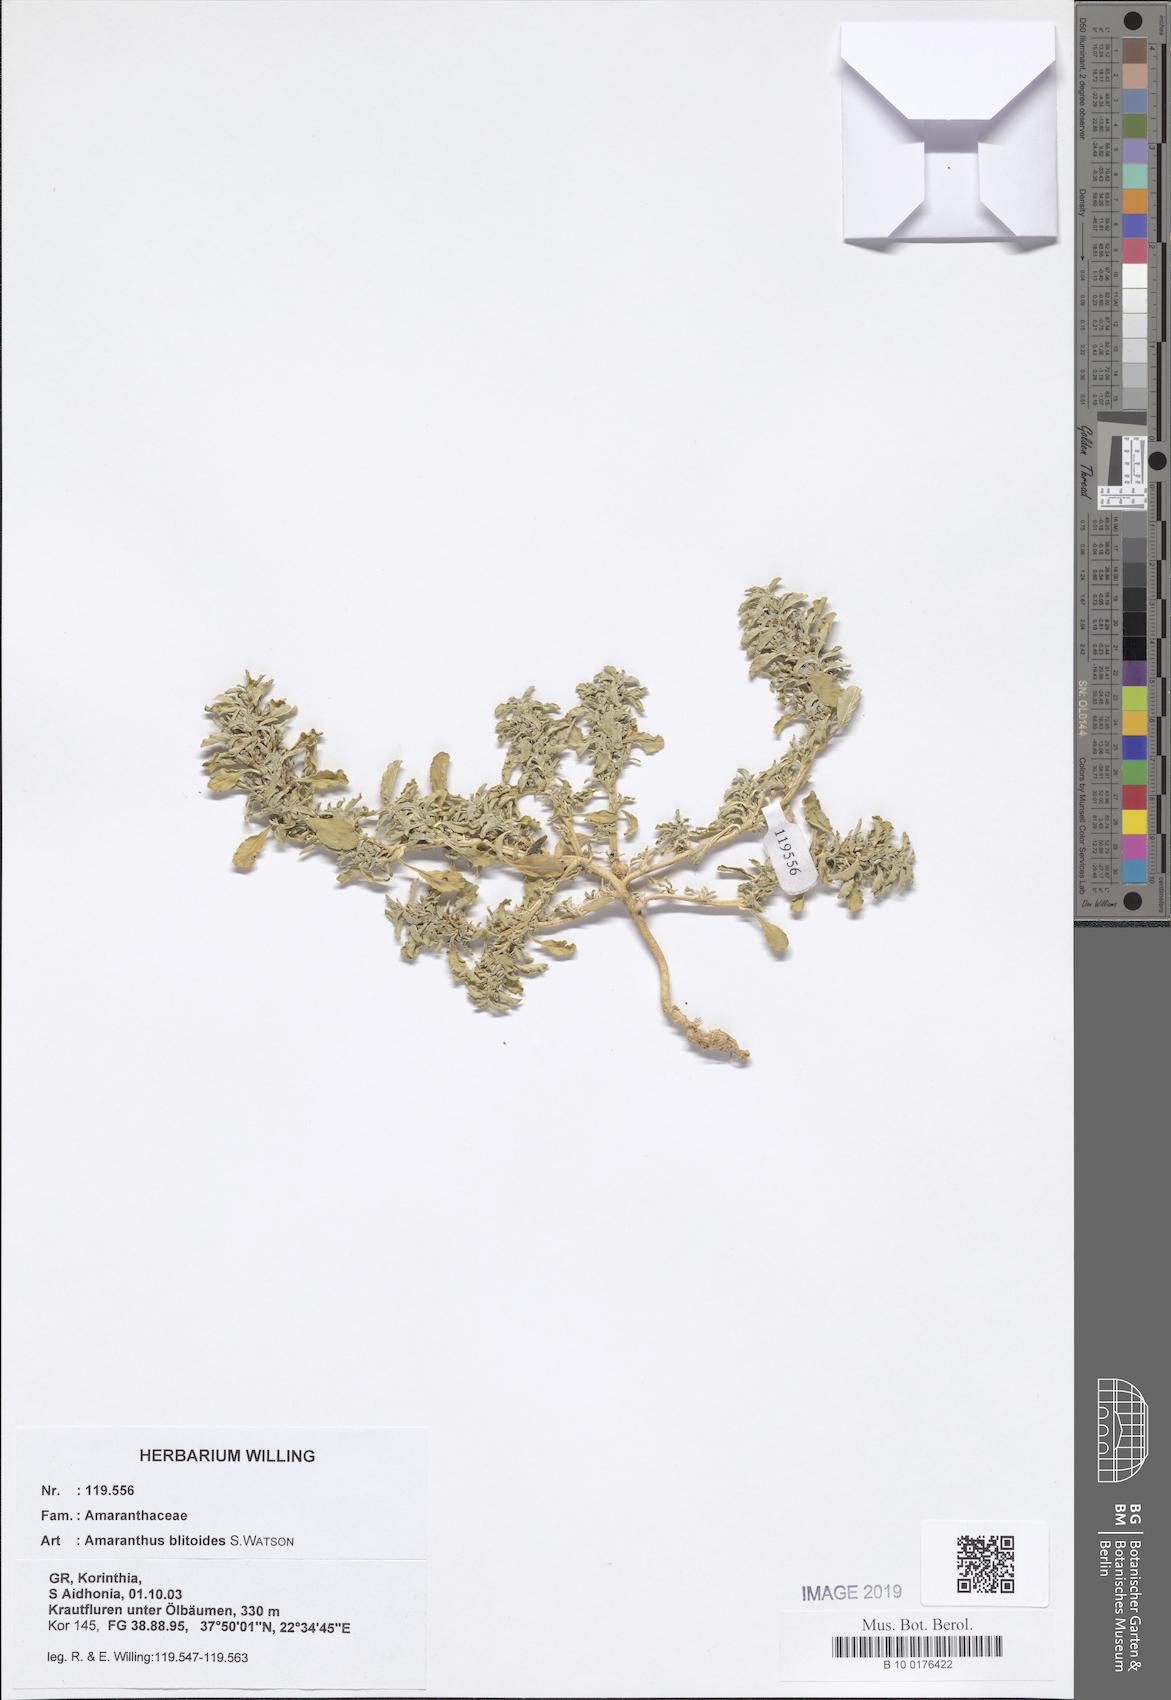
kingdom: Plantae
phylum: Tracheophyta
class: Magnoliopsida
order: Caryophyllales
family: Amaranthaceae
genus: Amaranthus
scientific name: Amaranthus blitoides
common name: Prostrate pigweed
